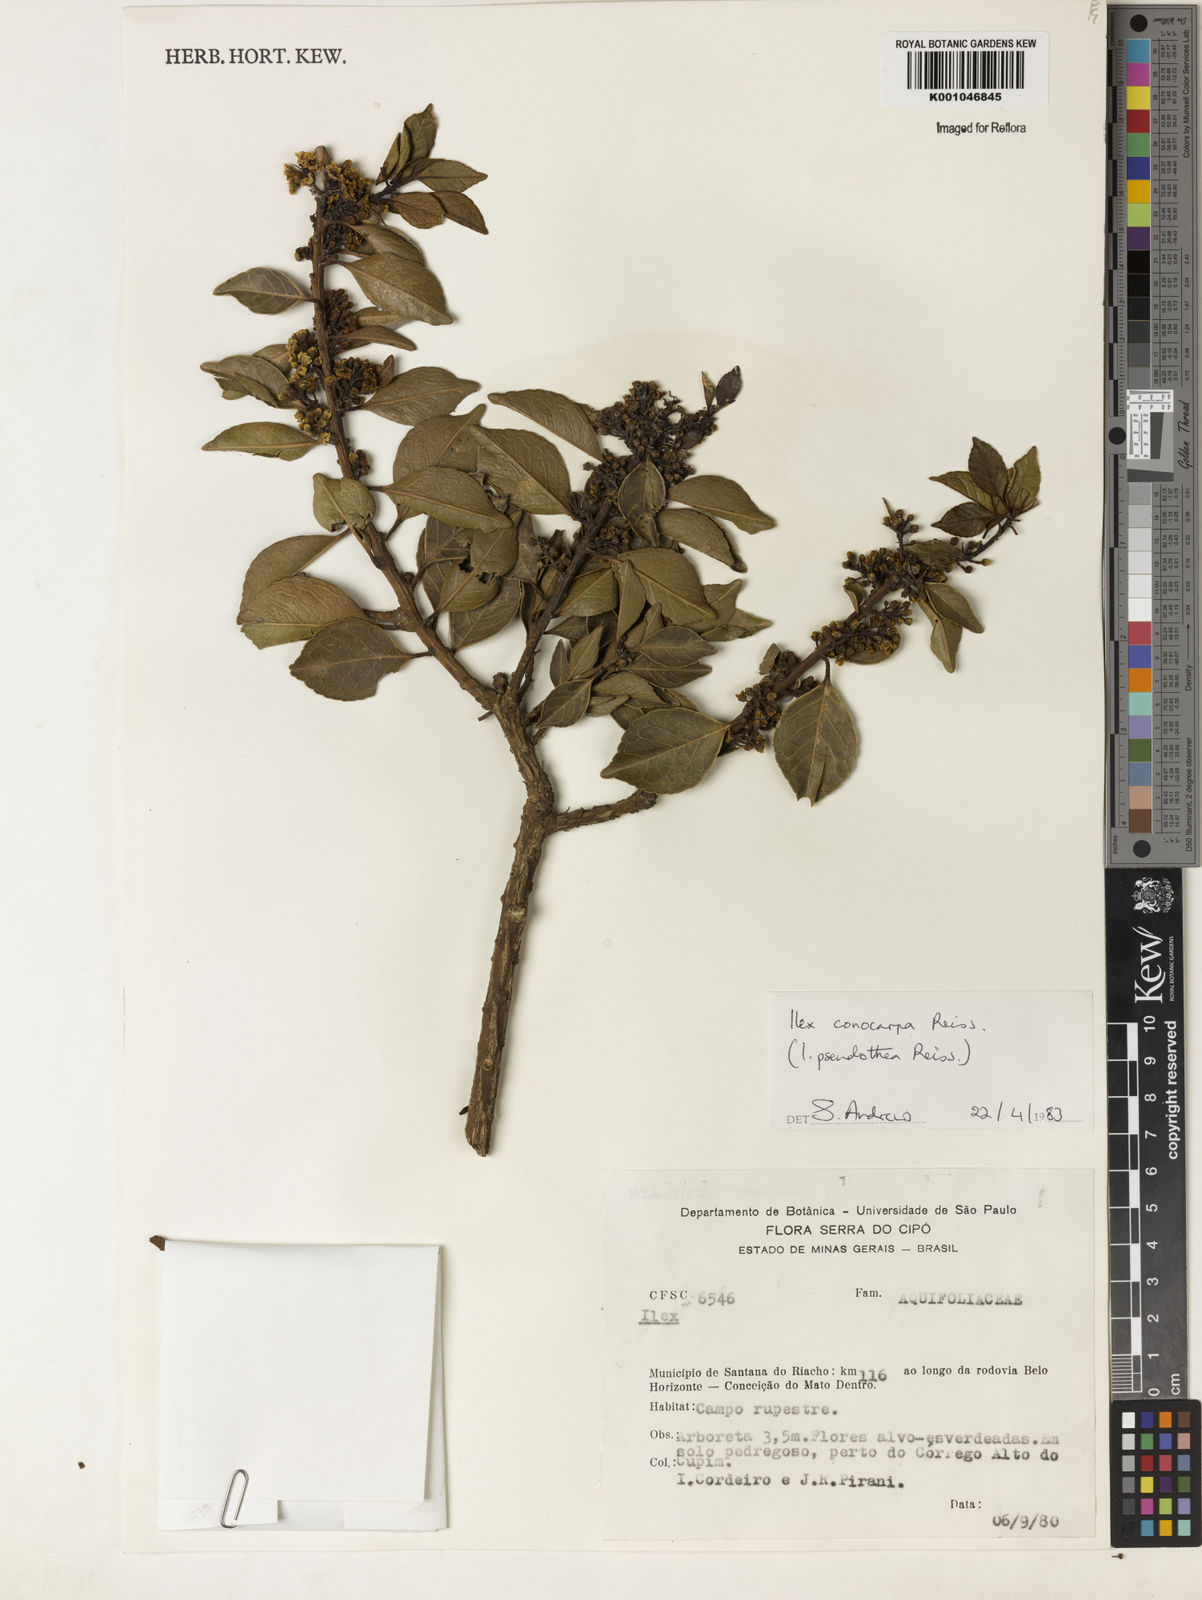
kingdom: Plantae
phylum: Tracheophyta
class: Magnoliopsida
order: Aquifoliales
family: Aquifoliaceae
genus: Ilex
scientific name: Ilex conocarpa
